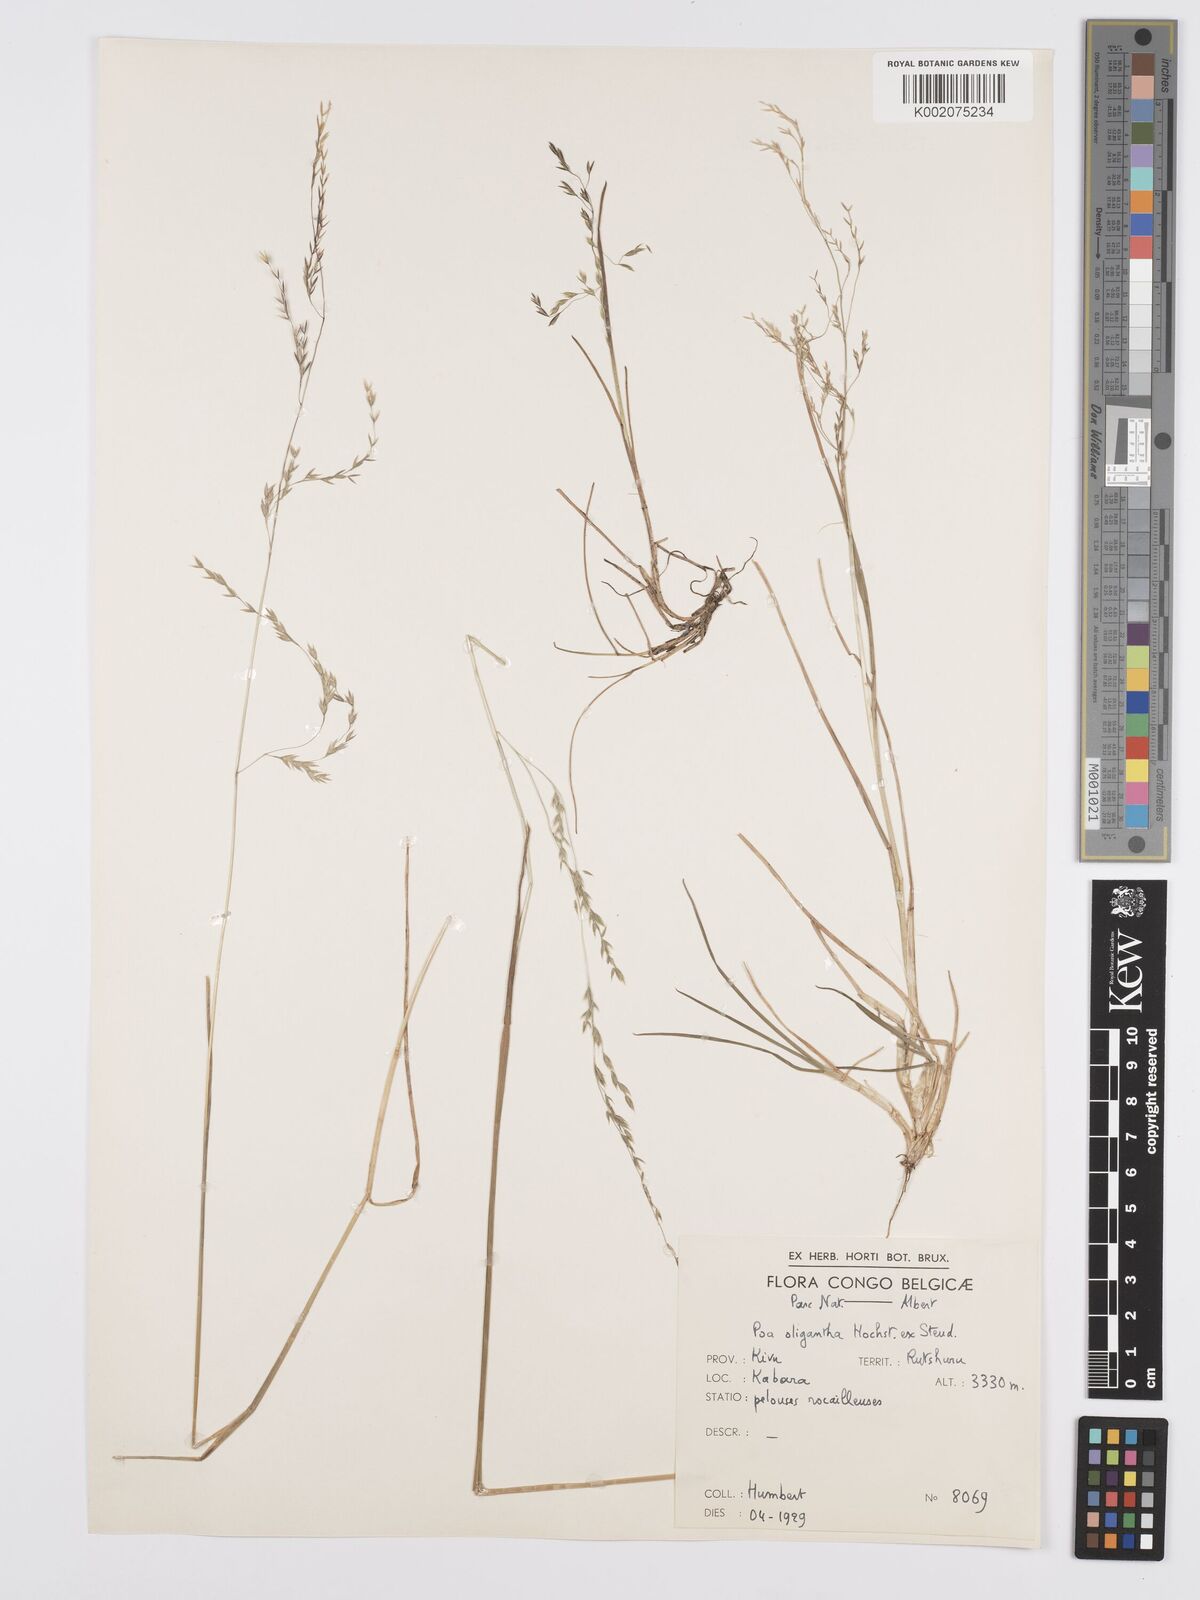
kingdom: Plantae
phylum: Tracheophyta
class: Liliopsida
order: Poales
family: Poaceae
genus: Poa
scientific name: Poa schimperiana
